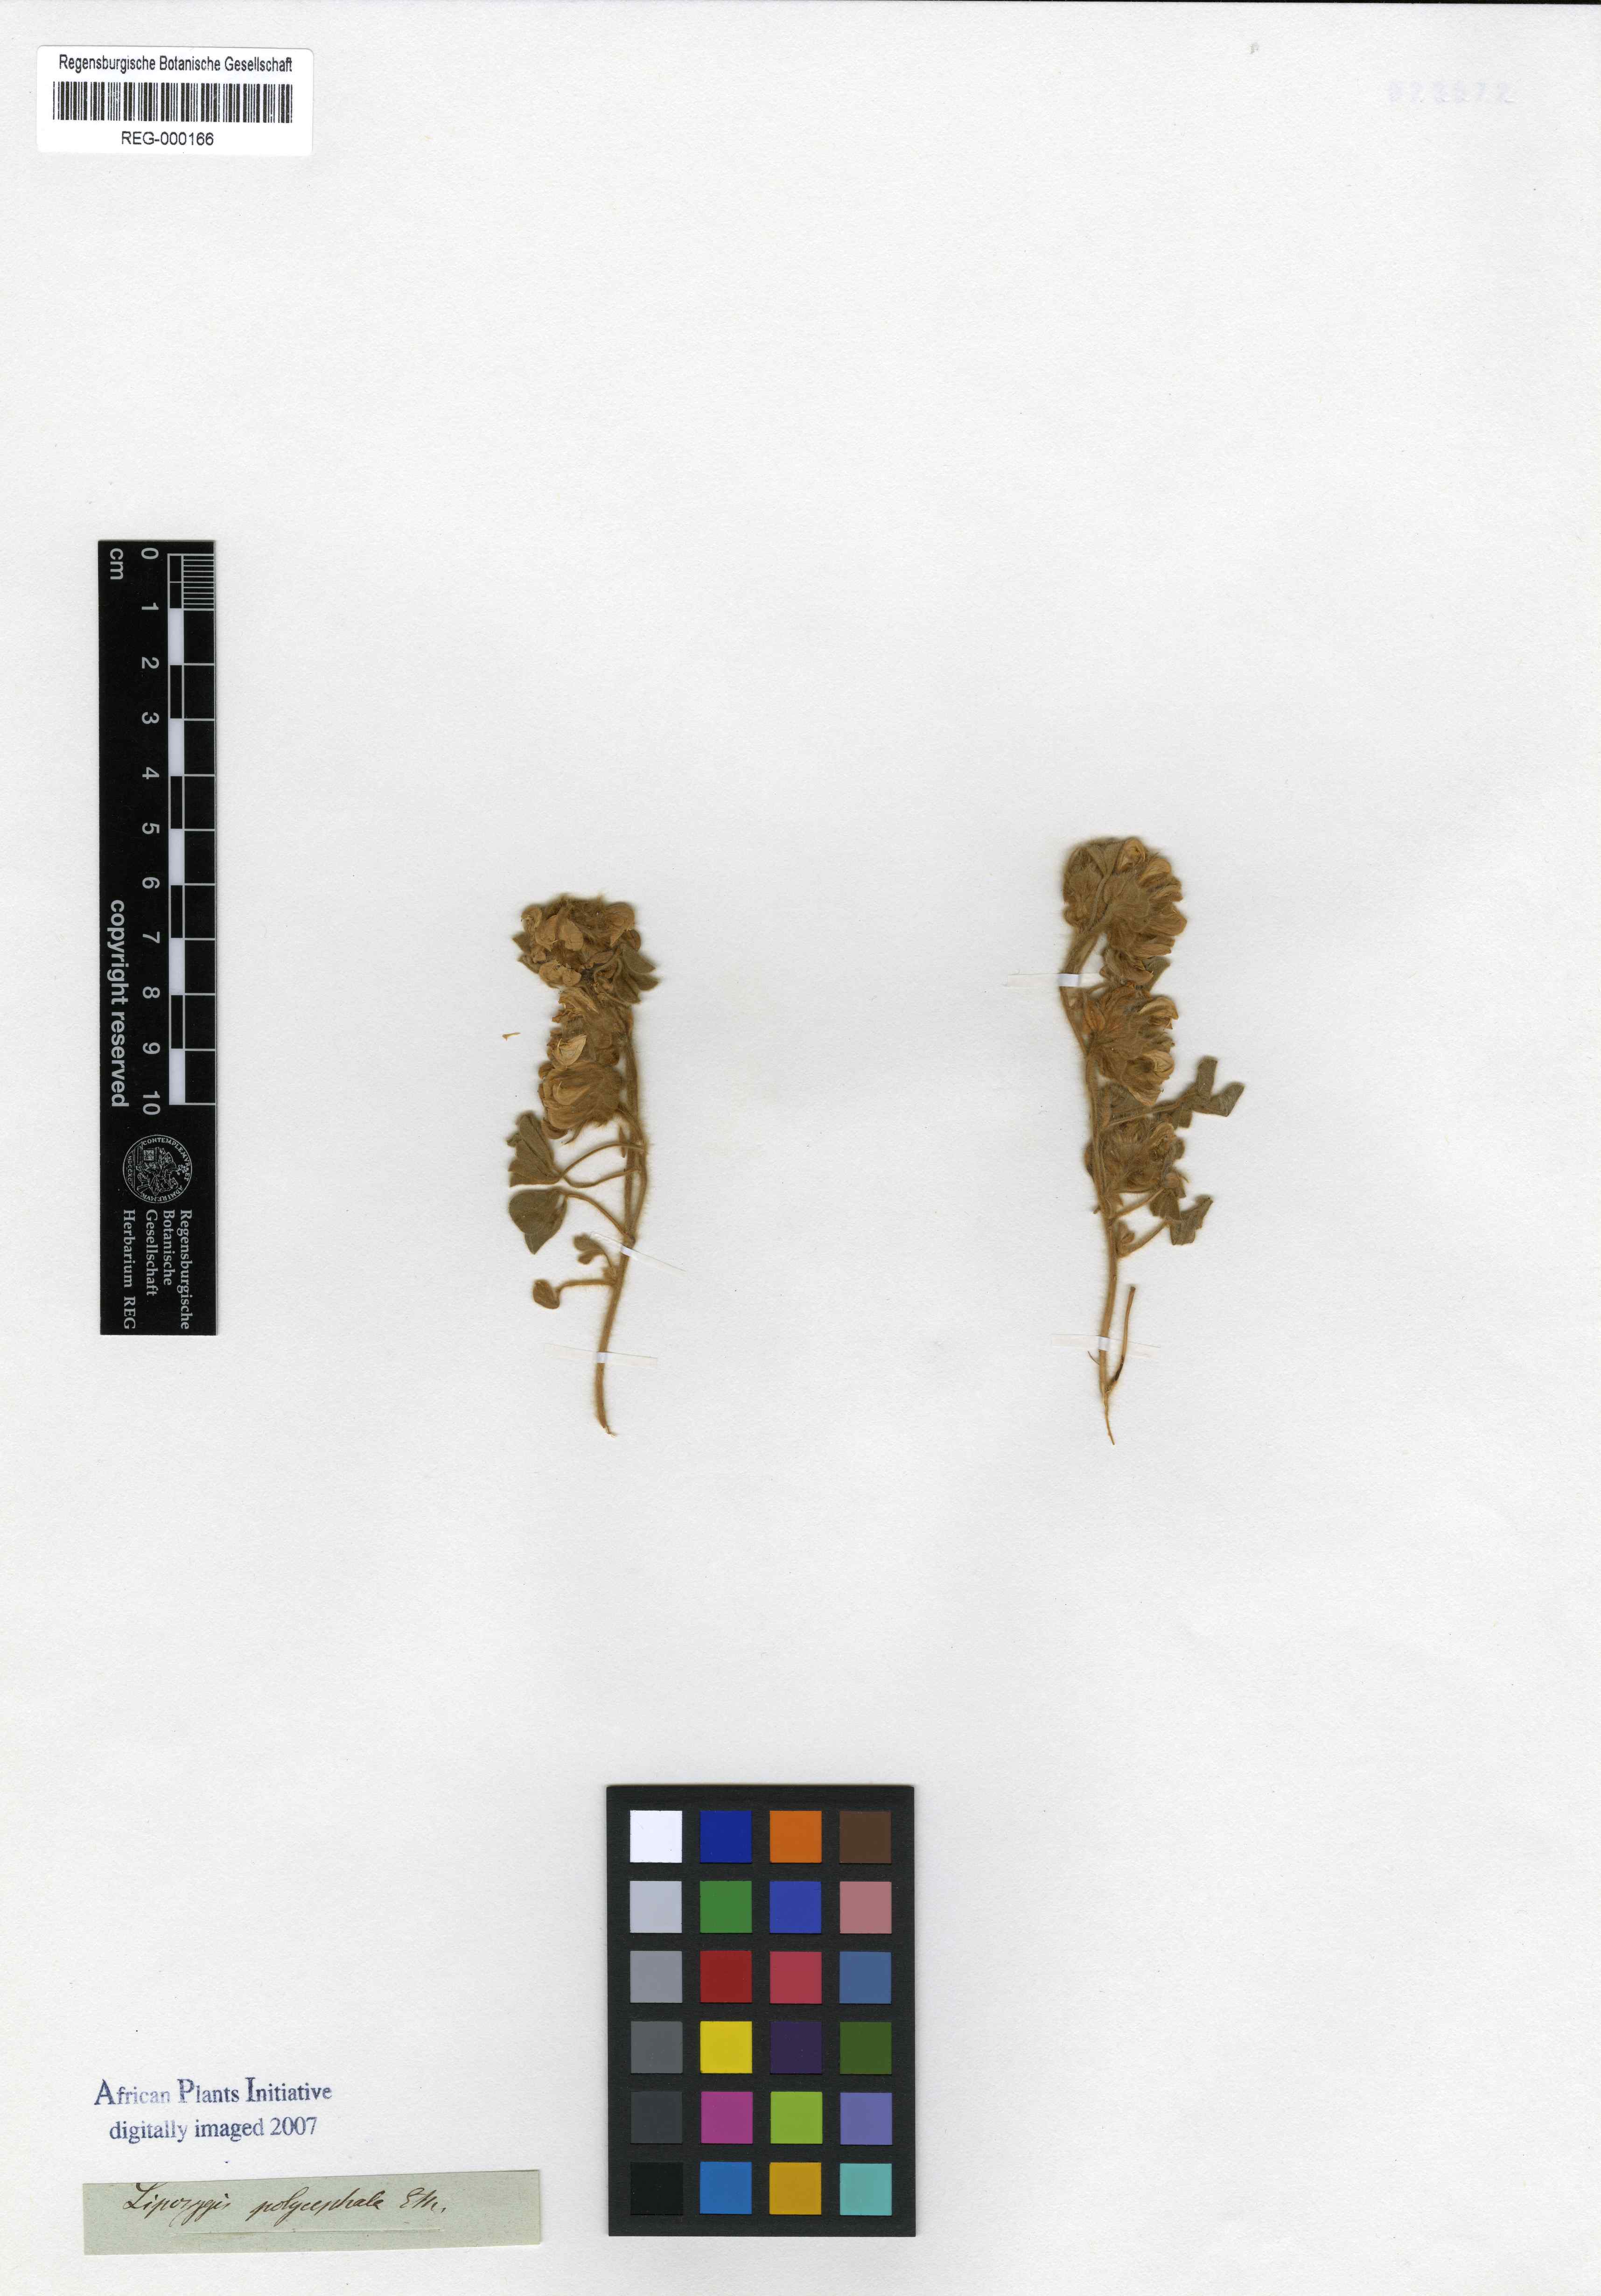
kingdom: Plantae
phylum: Tracheophyta
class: Magnoliopsida
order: Fabales
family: Fabaceae
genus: Leobordea
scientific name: Leobordea polycephala
